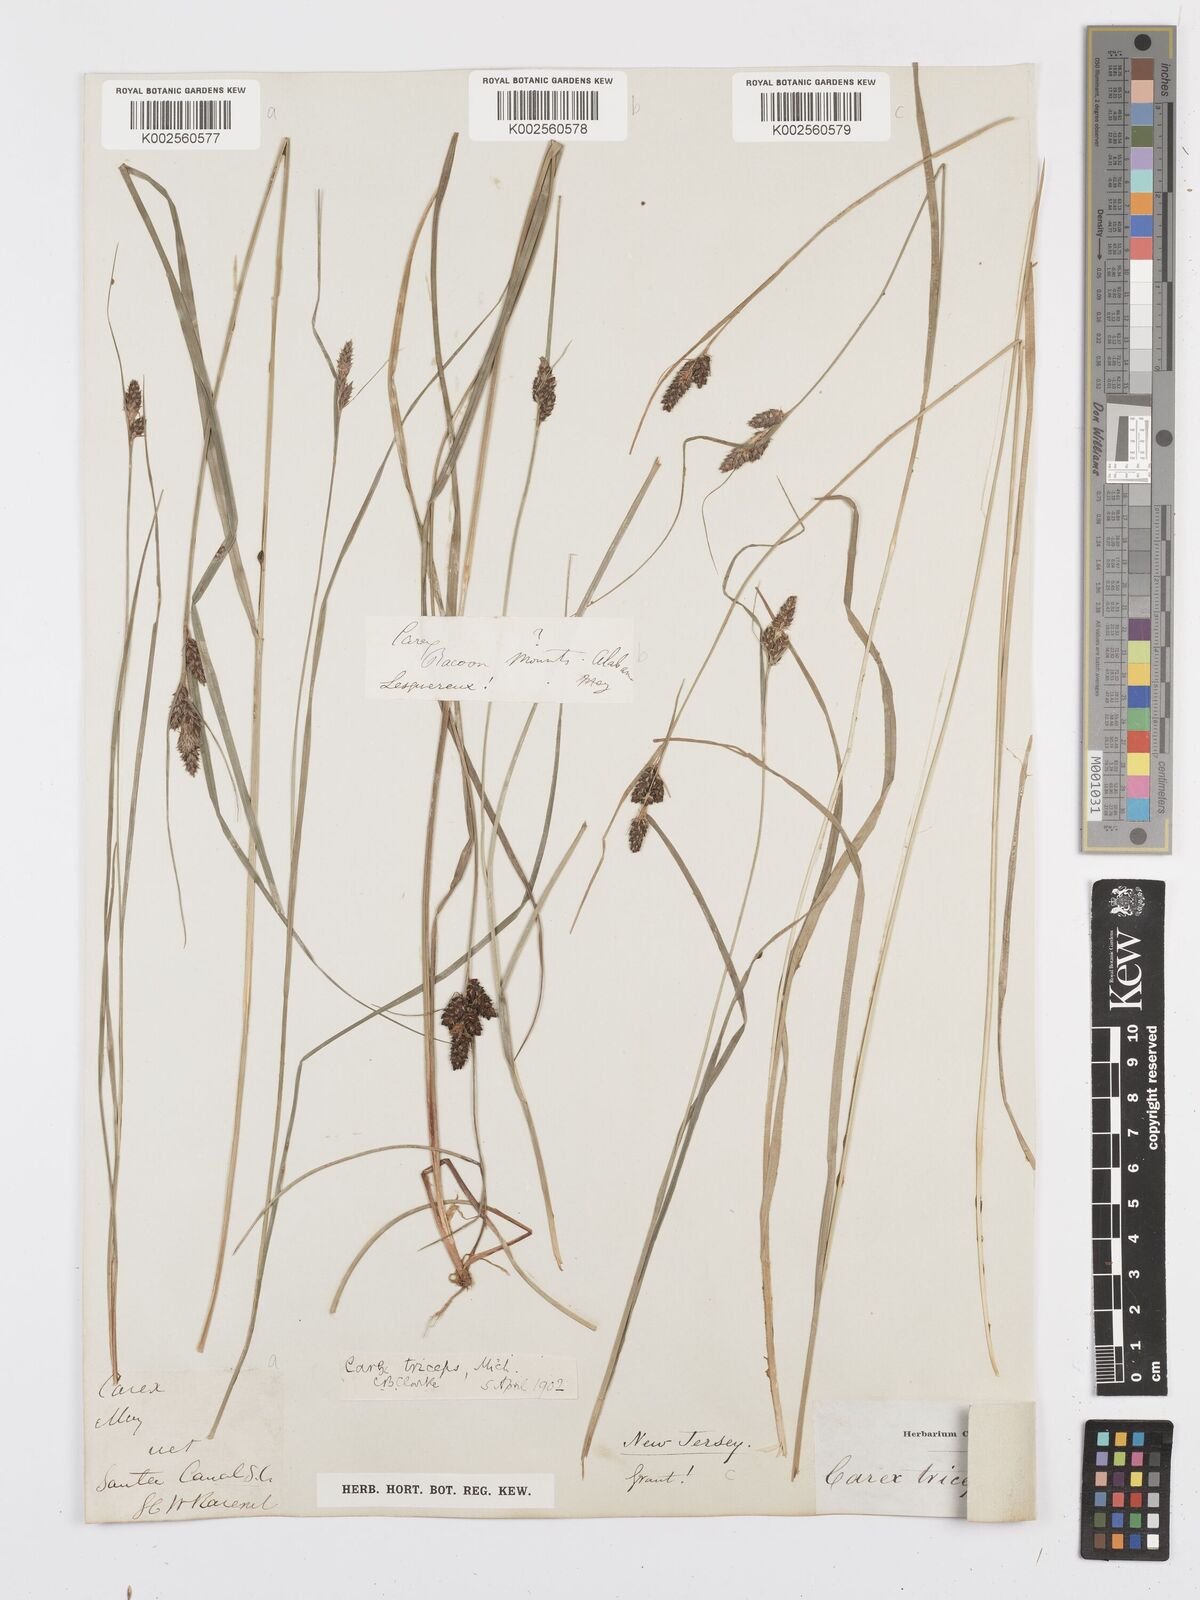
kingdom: Plantae
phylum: Tracheophyta
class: Liliopsida
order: Poales
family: Cyperaceae
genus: Carex
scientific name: Carex complanata
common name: Hirsute sedge
